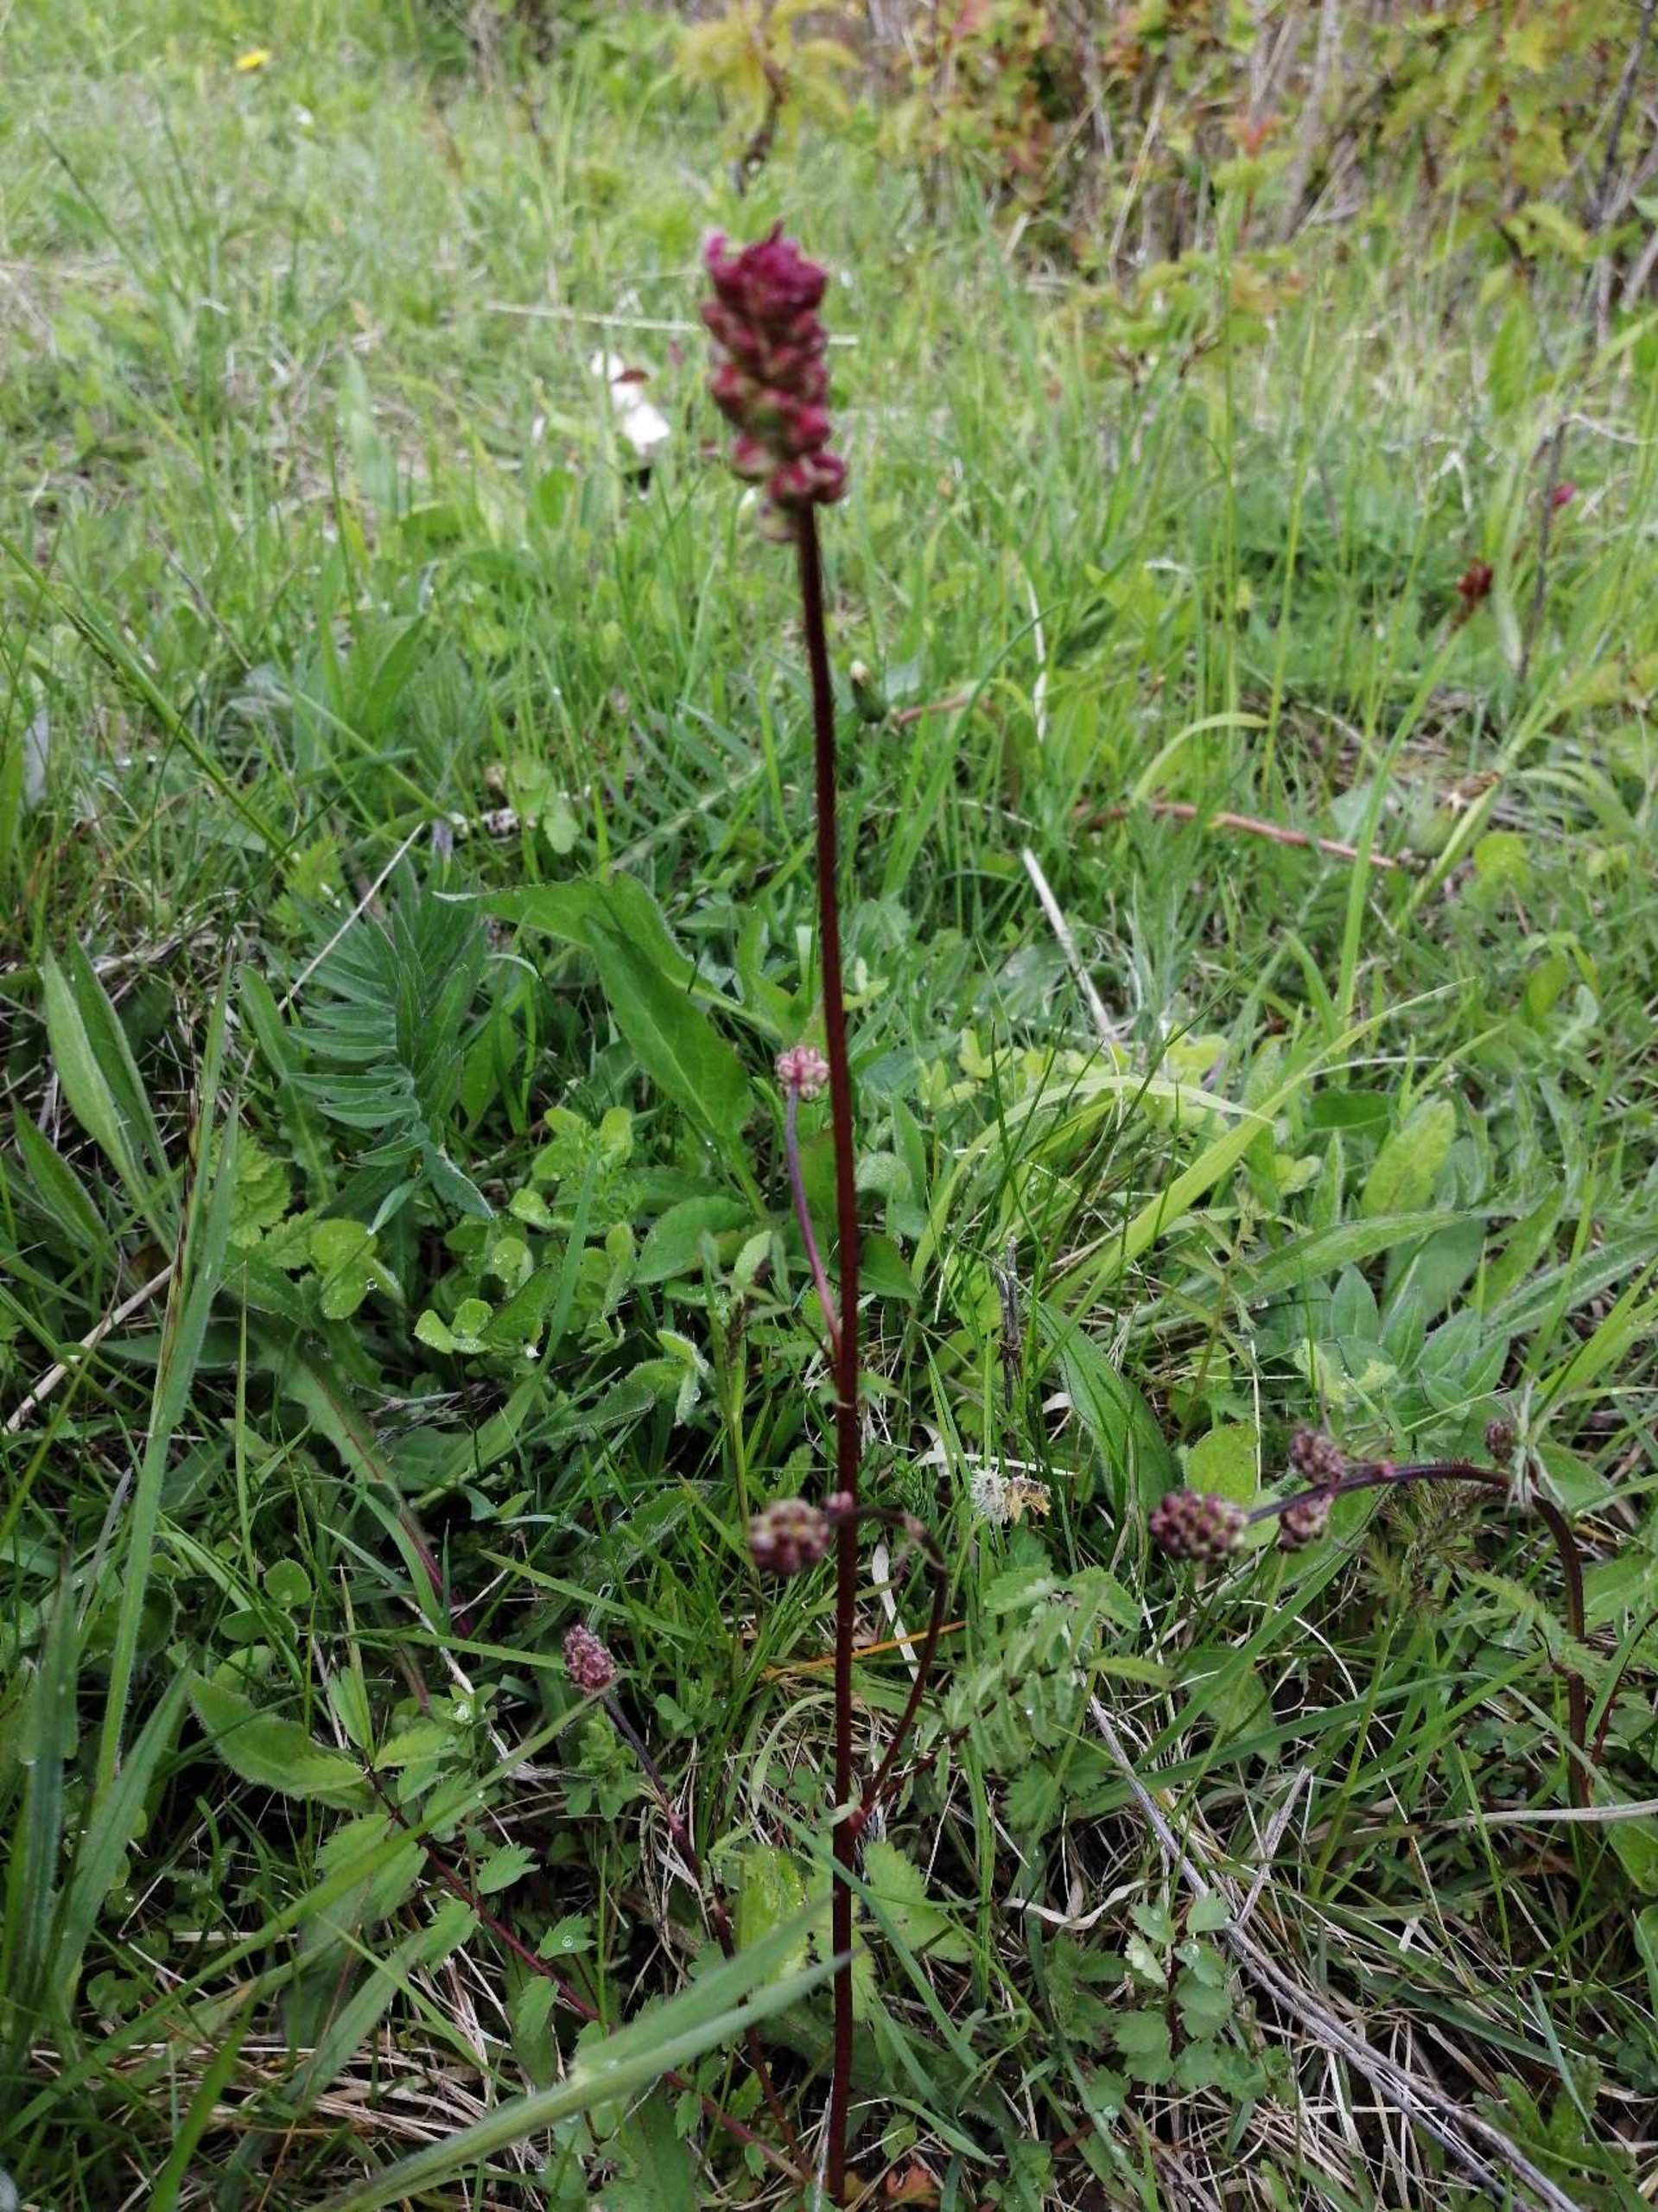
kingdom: Plantae
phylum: Tracheophyta
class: Magnoliopsida
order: Rosales
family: Rosaceae
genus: Poterium
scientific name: Poterium sanguisorba
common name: Bibernelle
